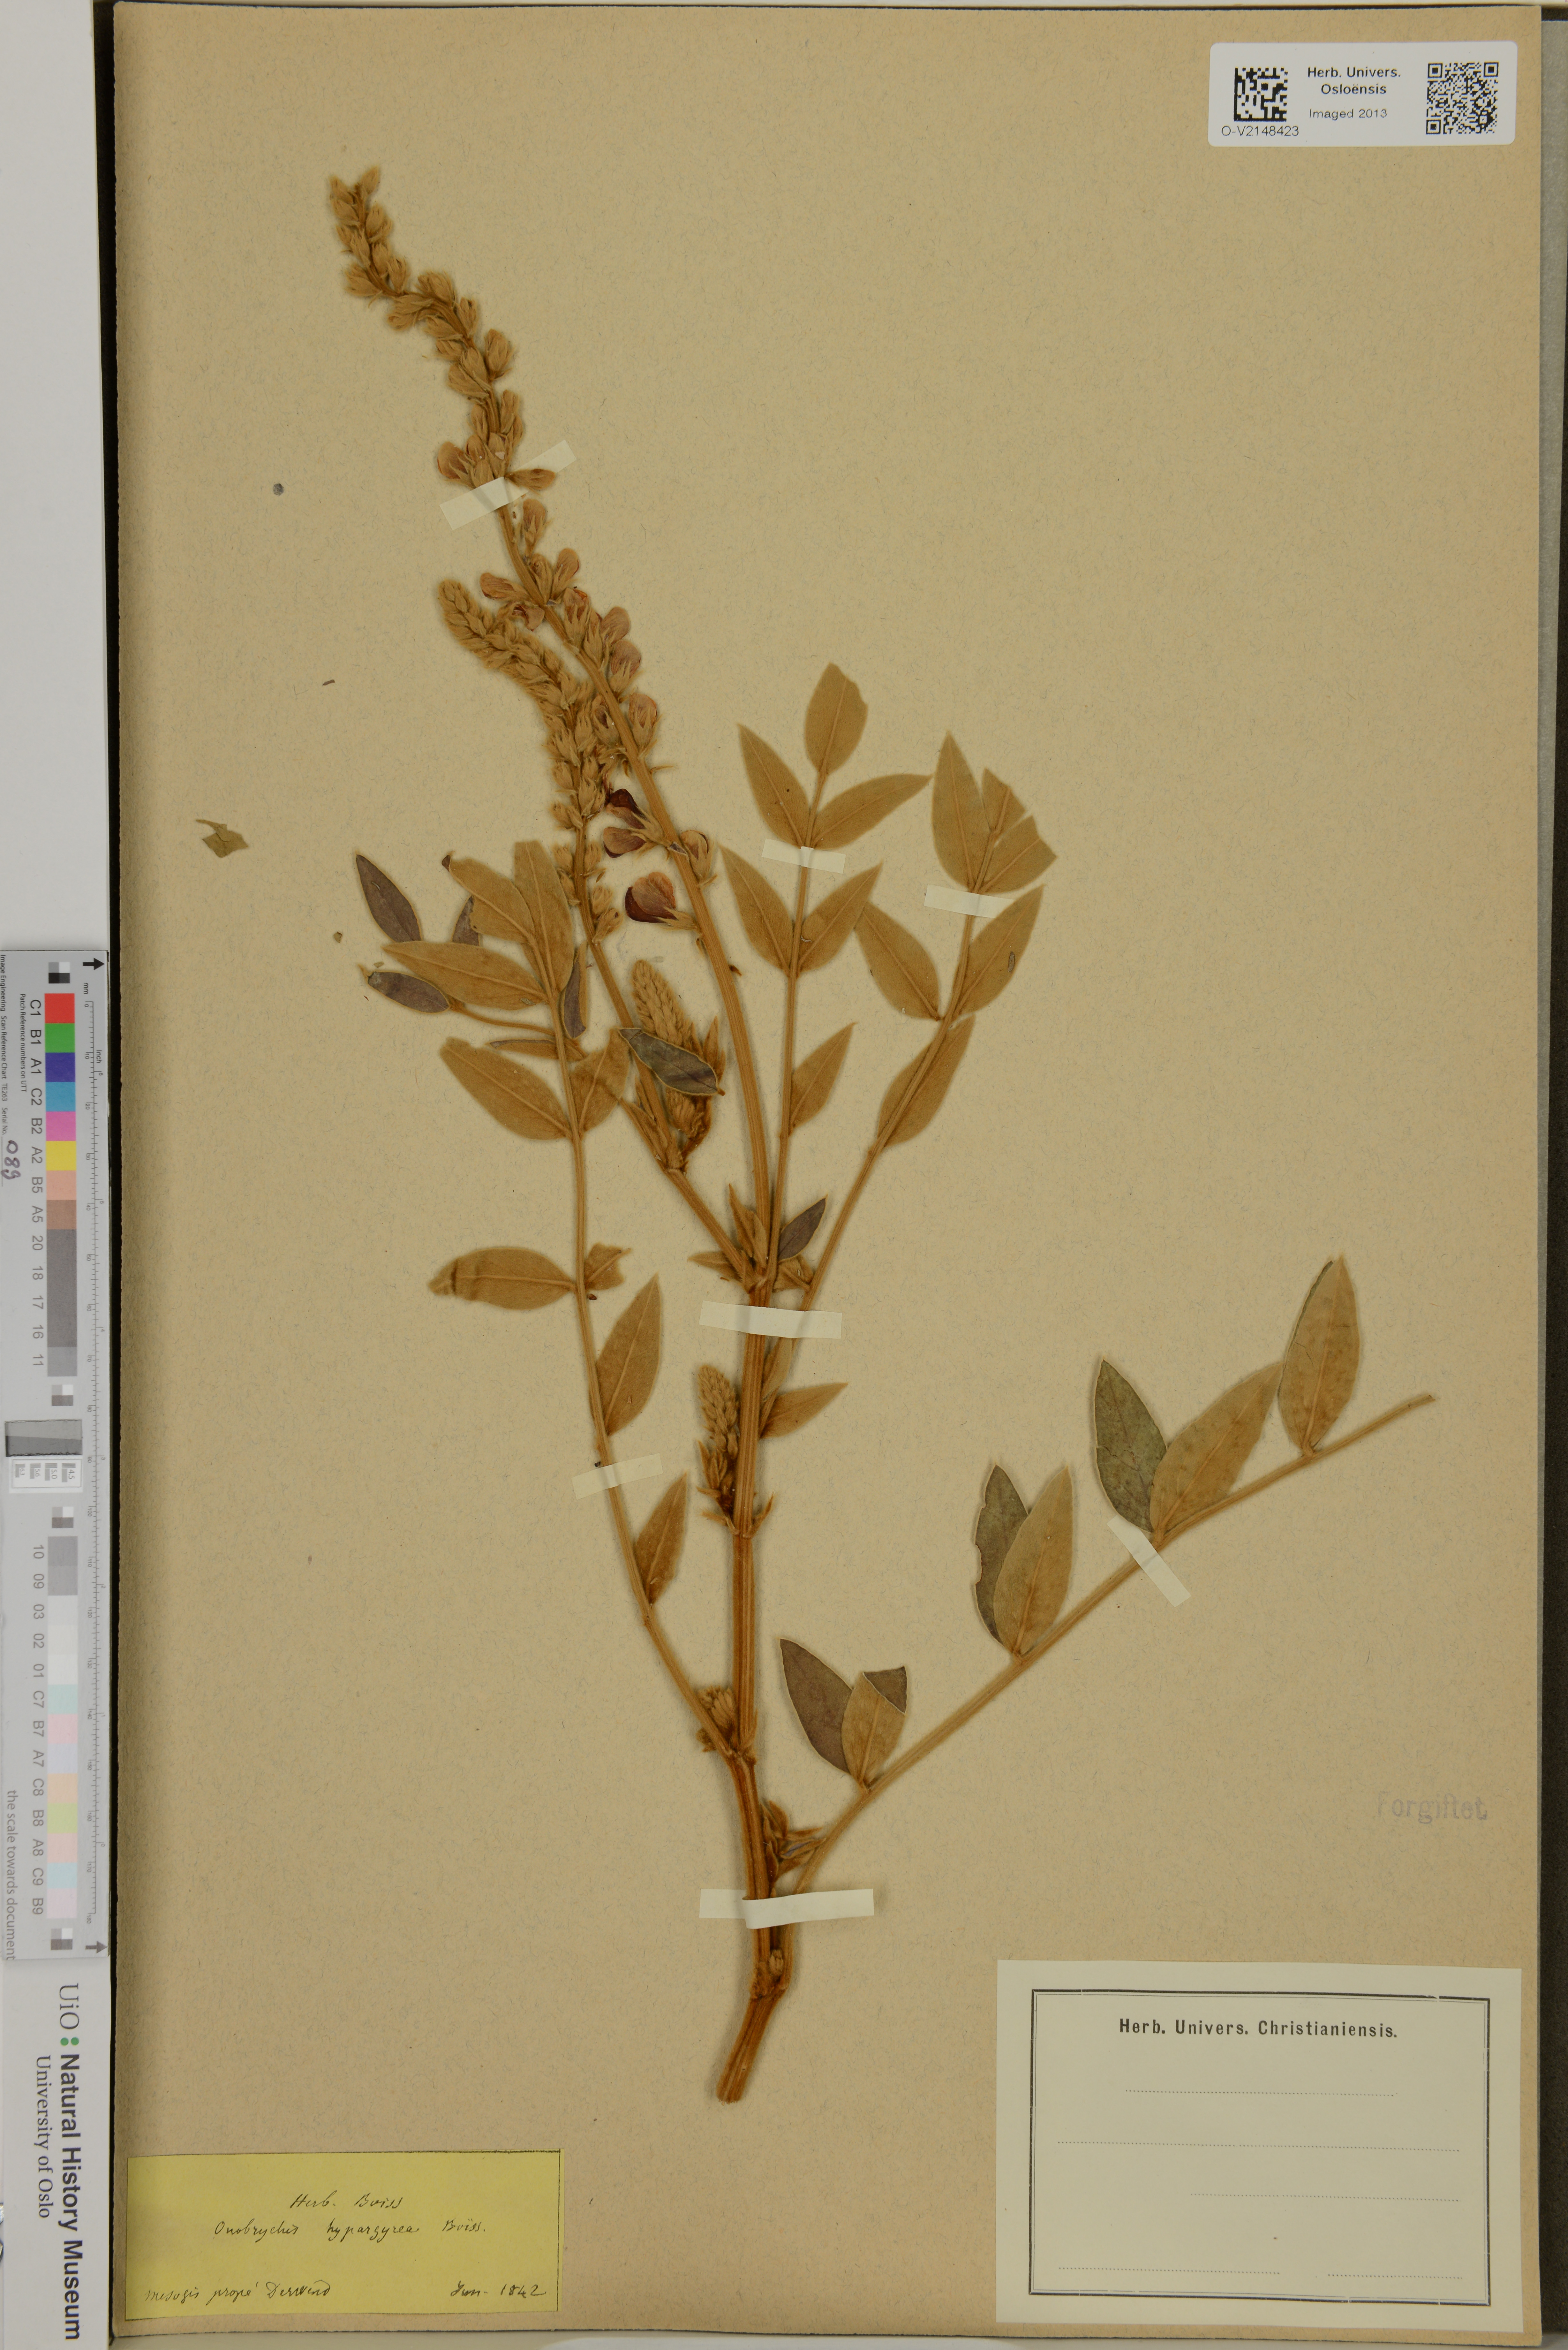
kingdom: Plantae
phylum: Tracheophyta
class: Magnoliopsida
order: Fabales
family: Fabaceae
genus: Onobrychis
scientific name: Onobrychis hypargyrea
